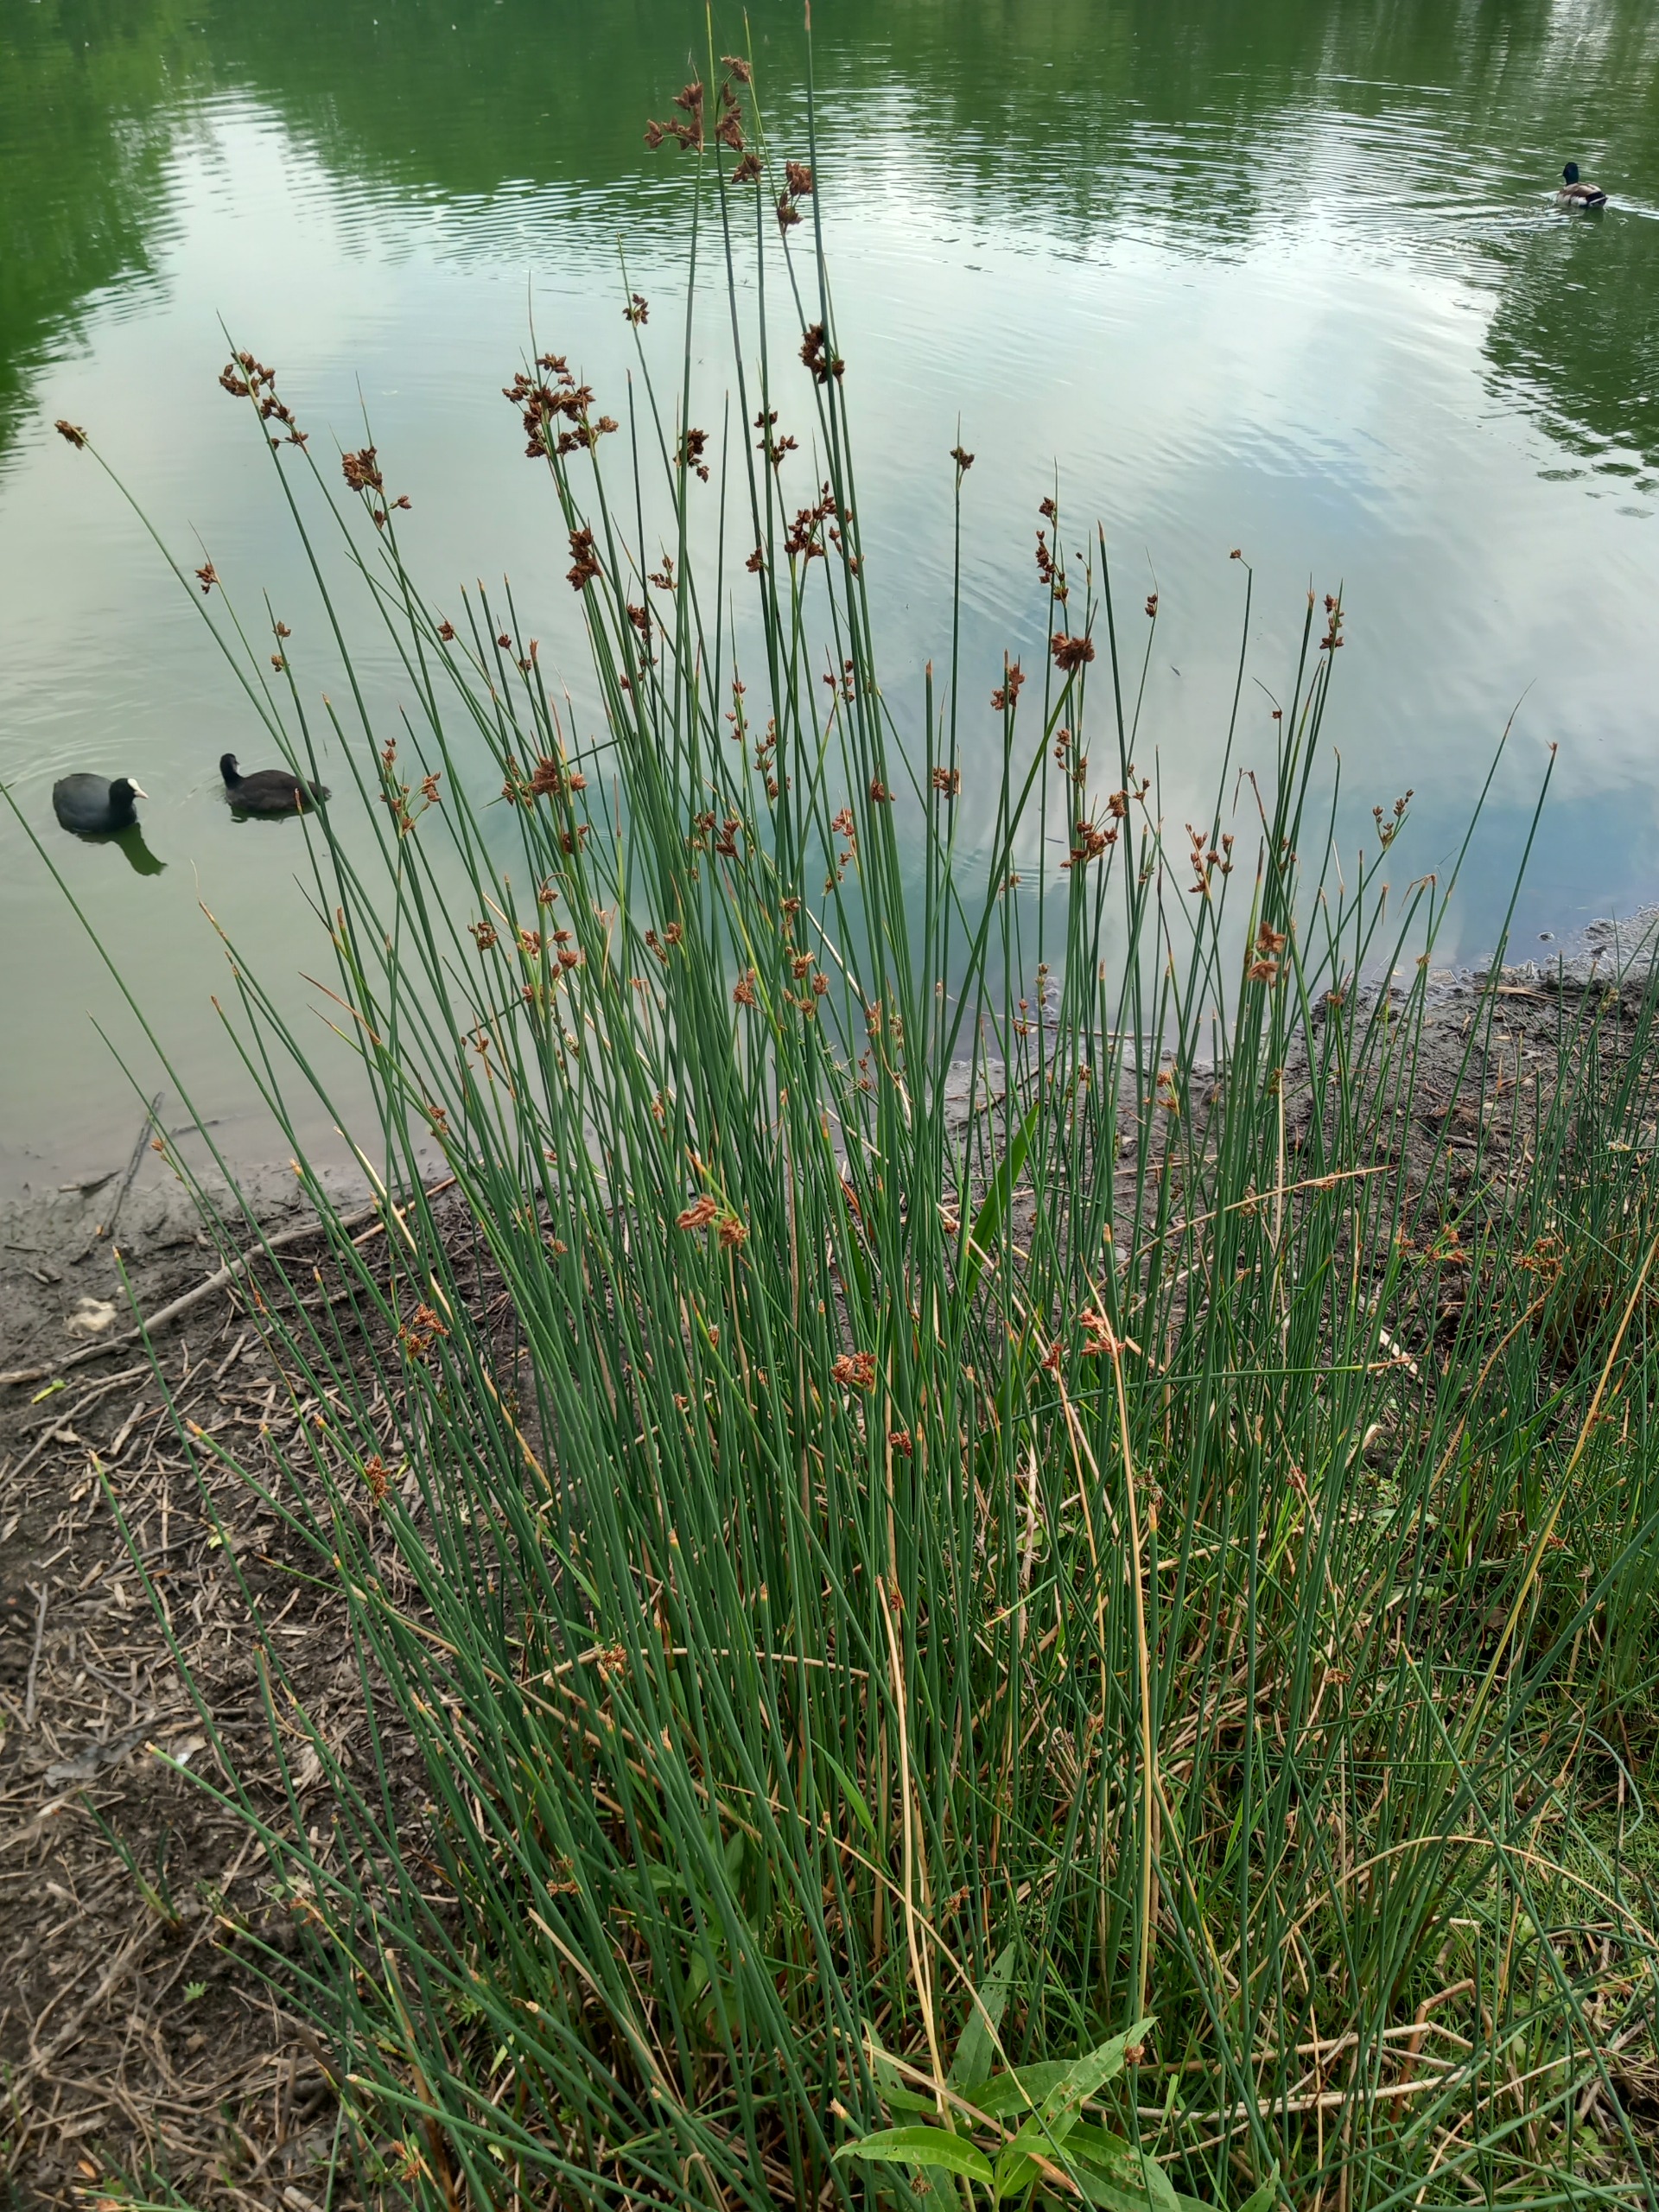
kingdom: Plantae
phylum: Tracheophyta
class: Liliopsida
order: Poales
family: Juncaceae
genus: Juncus
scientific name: Juncus effusus
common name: Lyse-siv
